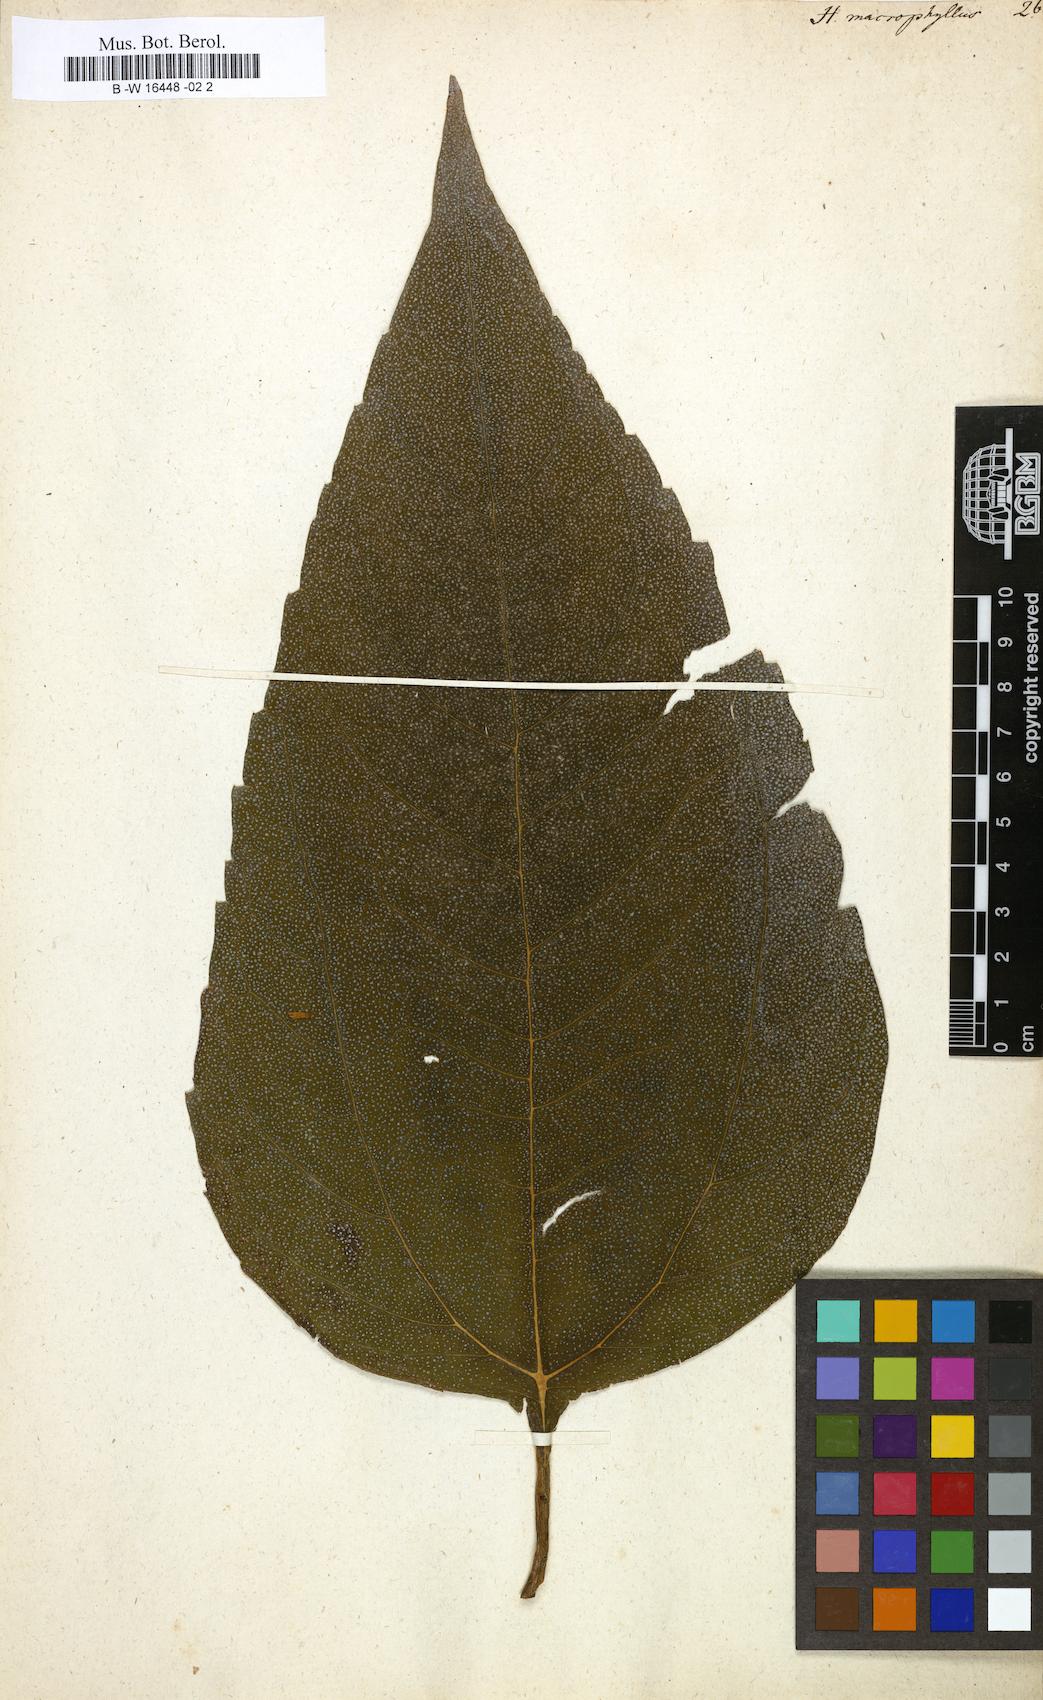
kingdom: Plantae
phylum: Tracheophyta
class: Magnoliopsida
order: Asterales
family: Asteraceae
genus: Helianthus
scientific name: Helianthus strumosus
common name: Pale-leaved sunflower
